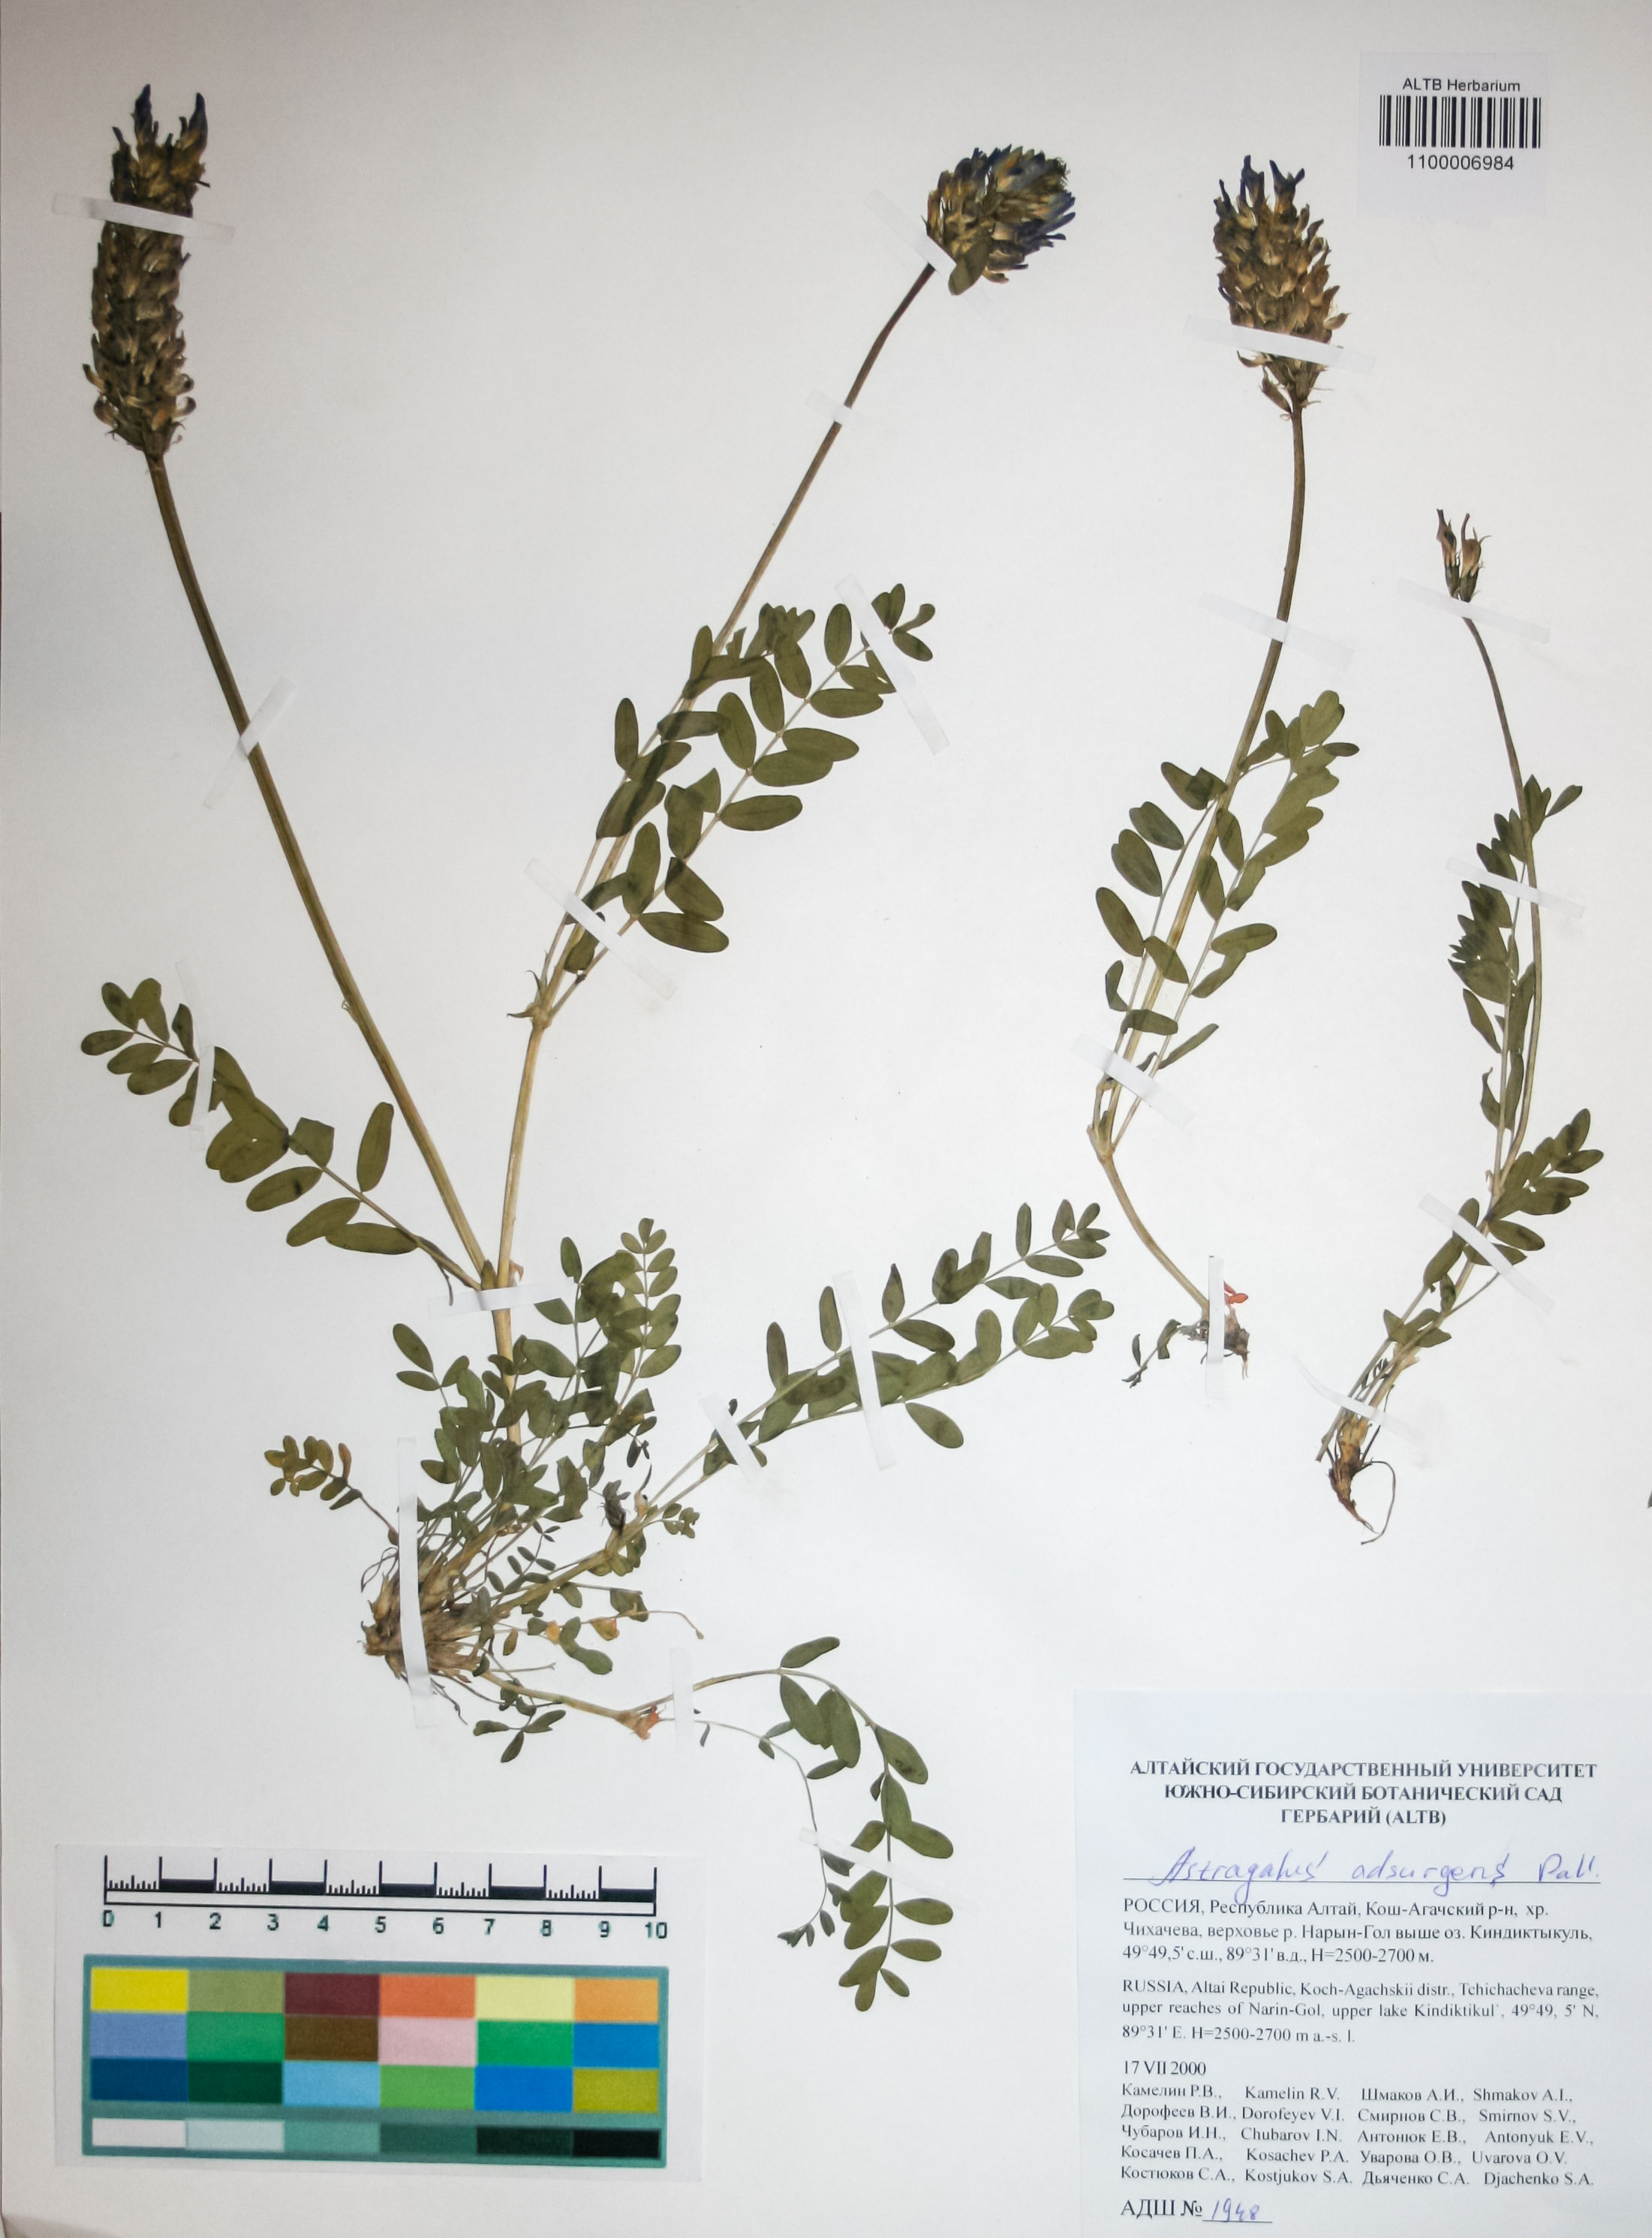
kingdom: Plantae
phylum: Tracheophyta
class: Magnoliopsida
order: Fabales
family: Fabaceae
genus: Astragalus
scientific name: Astragalus laxmannii
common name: Laxmann's milk-vetch
